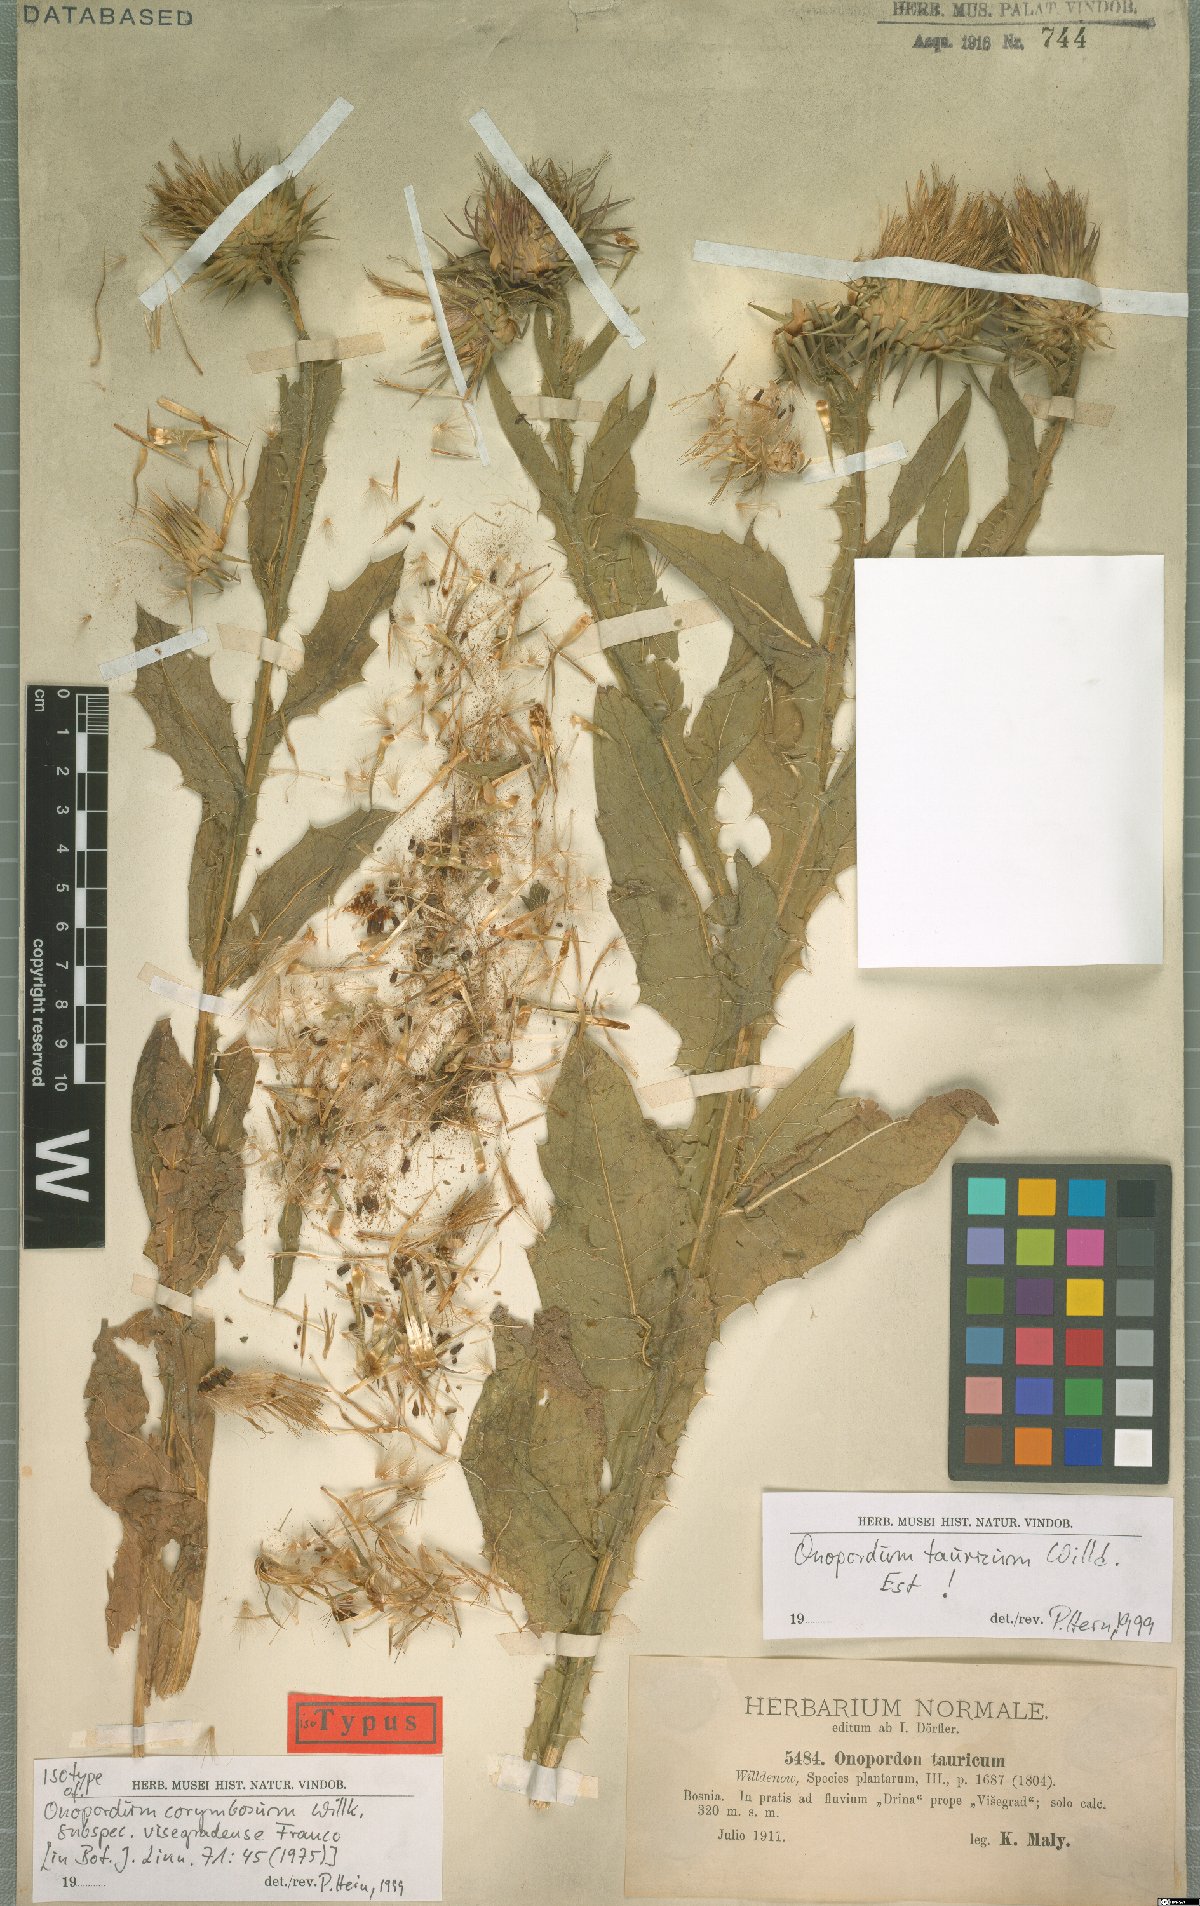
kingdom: Plantae
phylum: Tracheophyta
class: Magnoliopsida
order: Asterales
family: Asteraceae
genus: Onopordum
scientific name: Onopordum tauricum
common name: Bull cottonthistle
